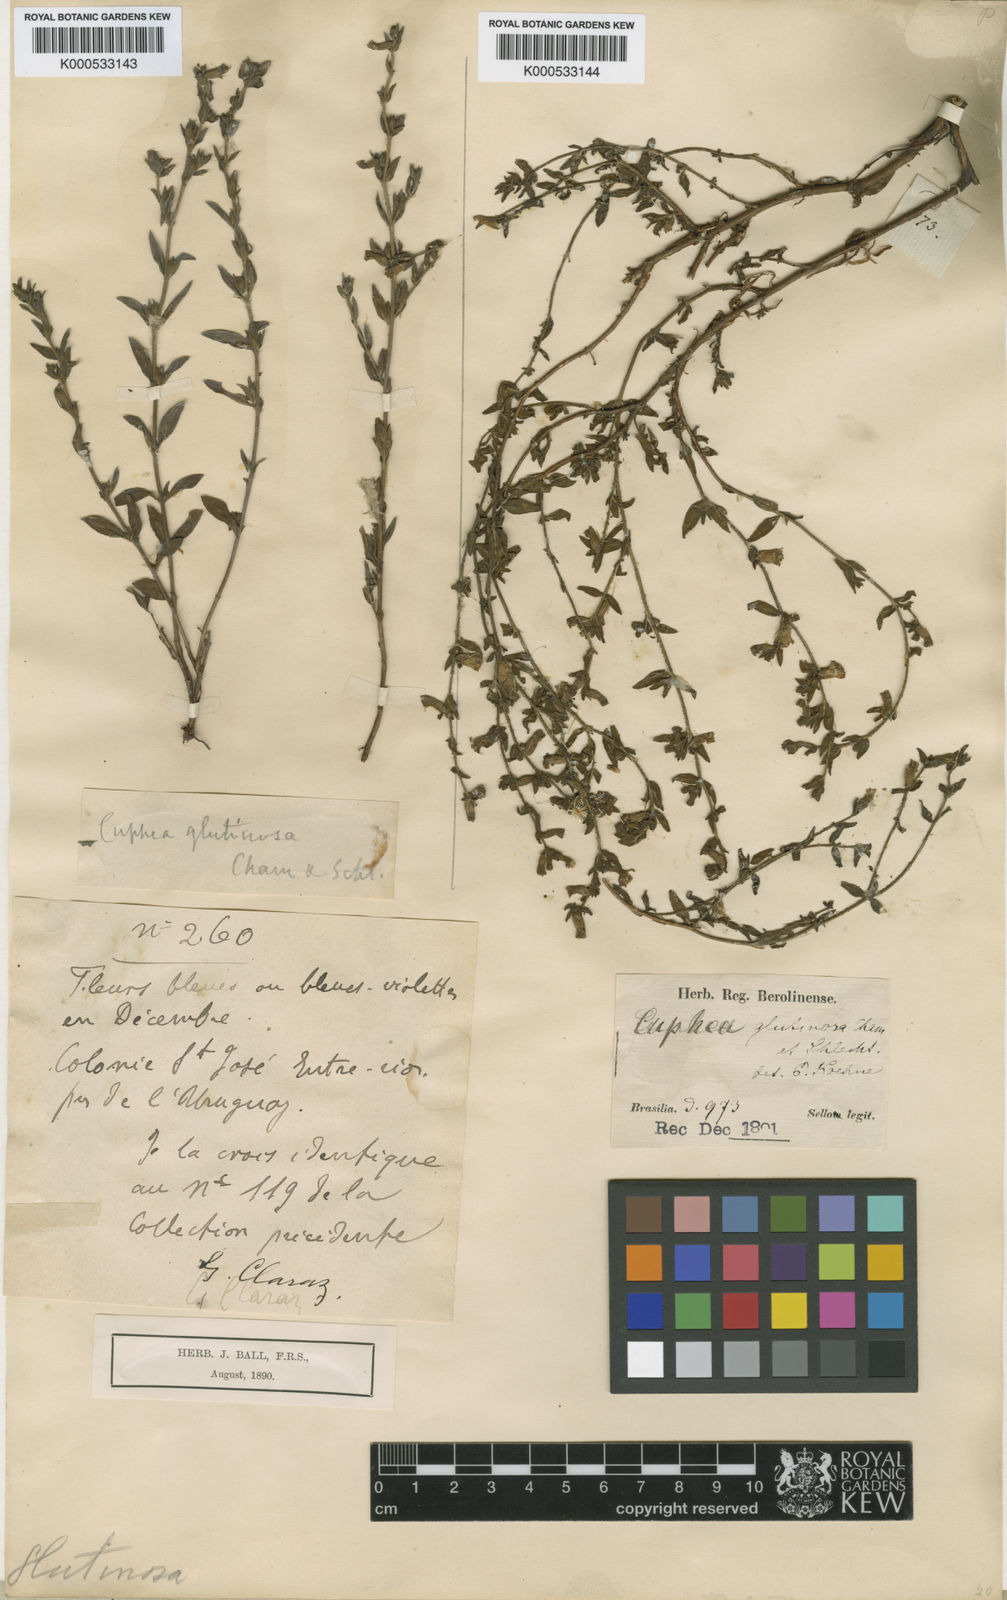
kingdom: Plantae
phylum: Tracheophyta
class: Magnoliopsida
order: Myrtales
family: Lythraceae
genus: Cuphea
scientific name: Cuphea glutinosa
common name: Sticky waxweed
